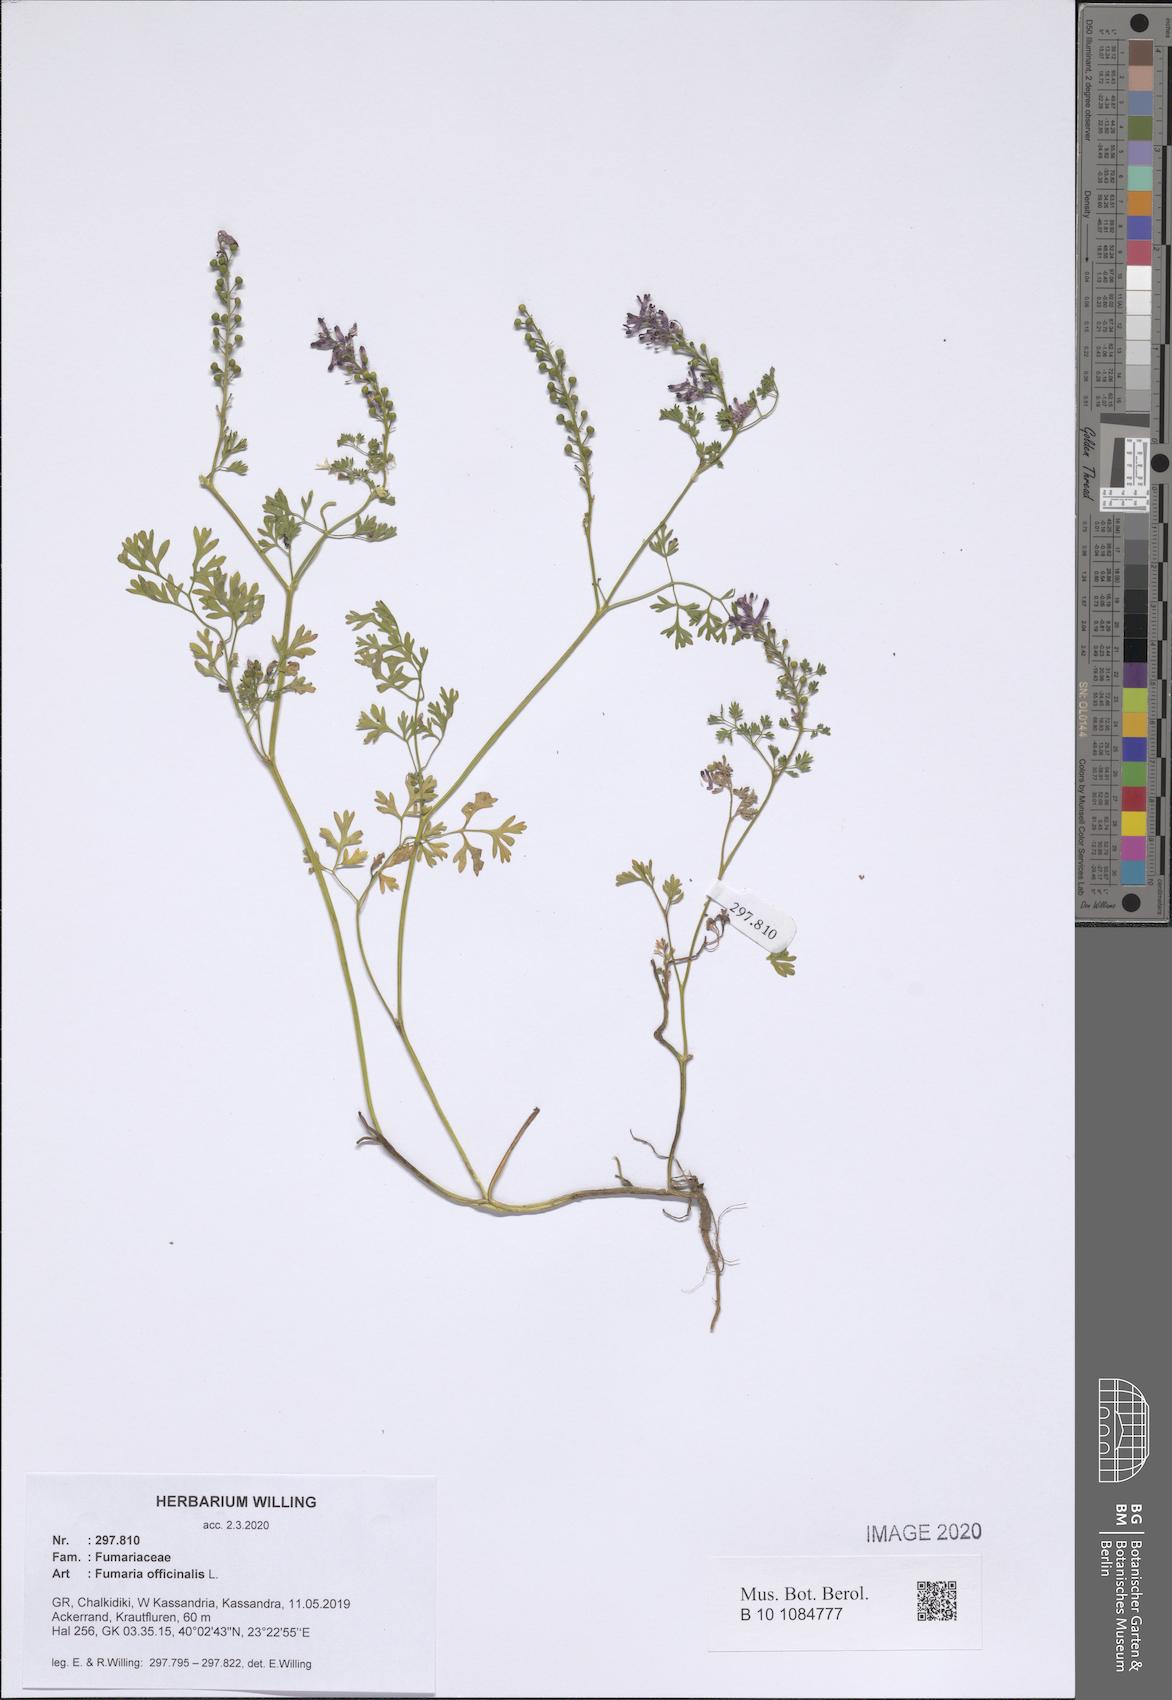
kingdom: Plantae
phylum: Tracheophyta
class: Magnoliopsida
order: Ranunculales
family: Papaveraceae
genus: Fumaria
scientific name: Fumaria officinalis
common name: Common fumitory
